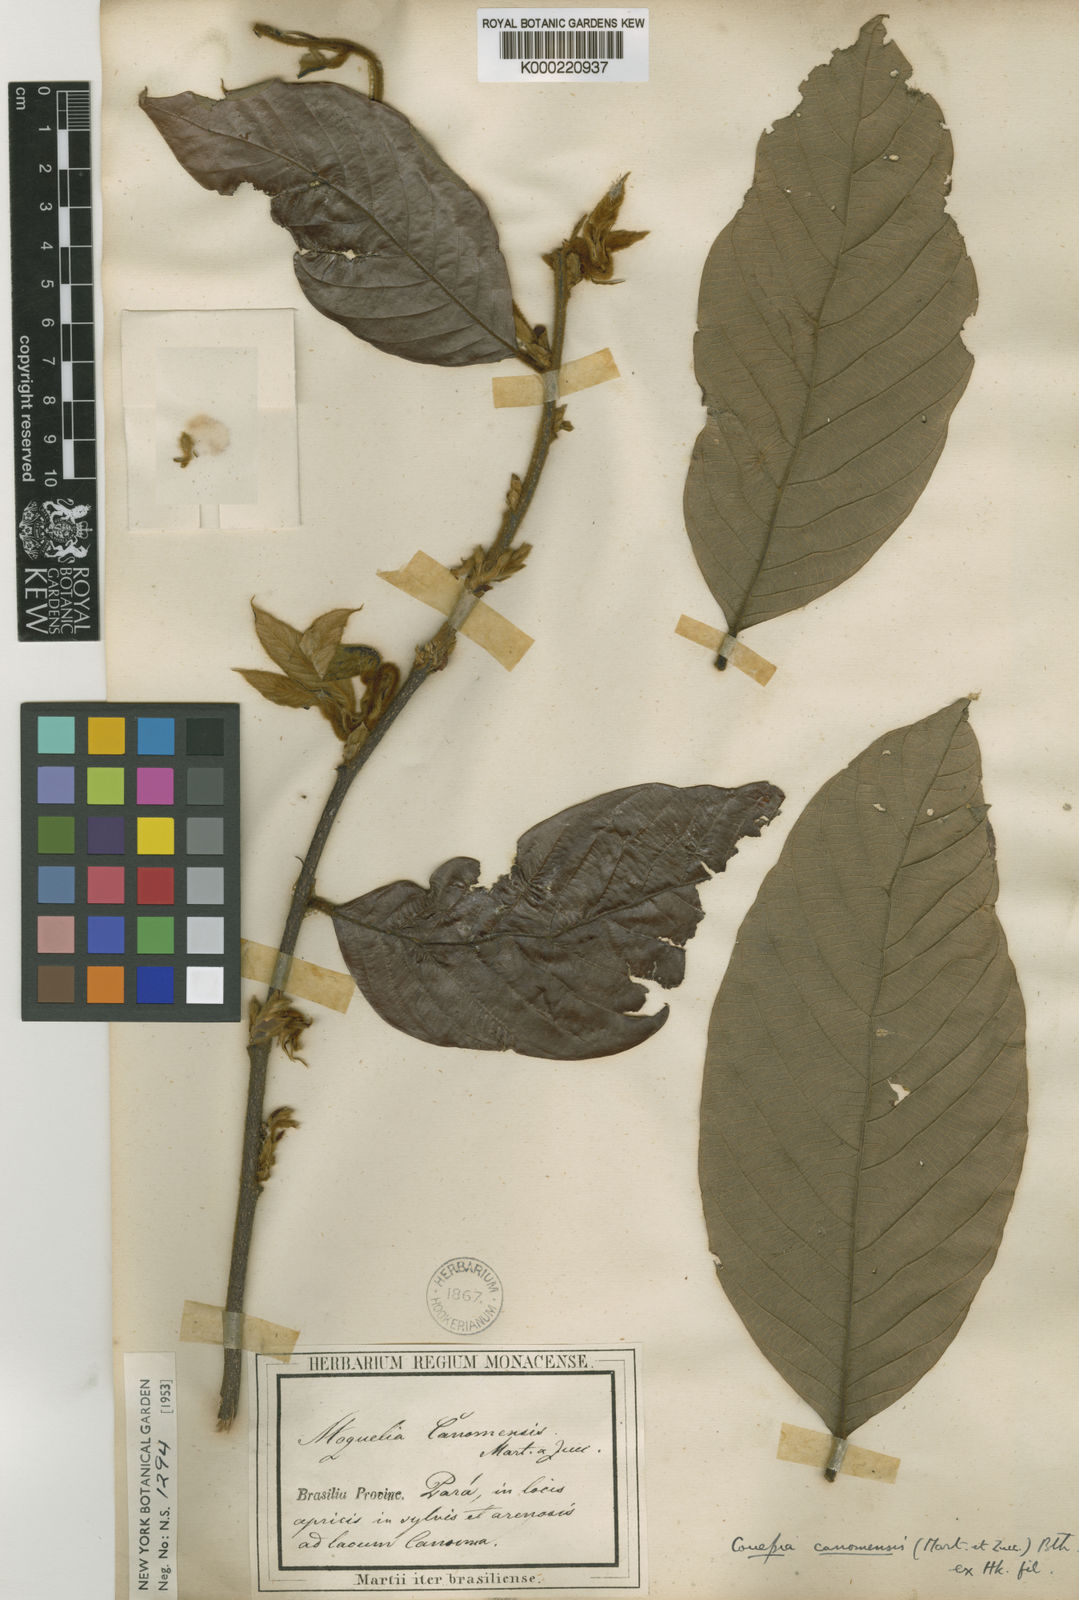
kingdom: Plantae
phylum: Tracheophyta
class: Magnoliopsida
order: Malpighiales
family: Chrysobalanaceae
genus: Couepia
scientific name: Couepia
